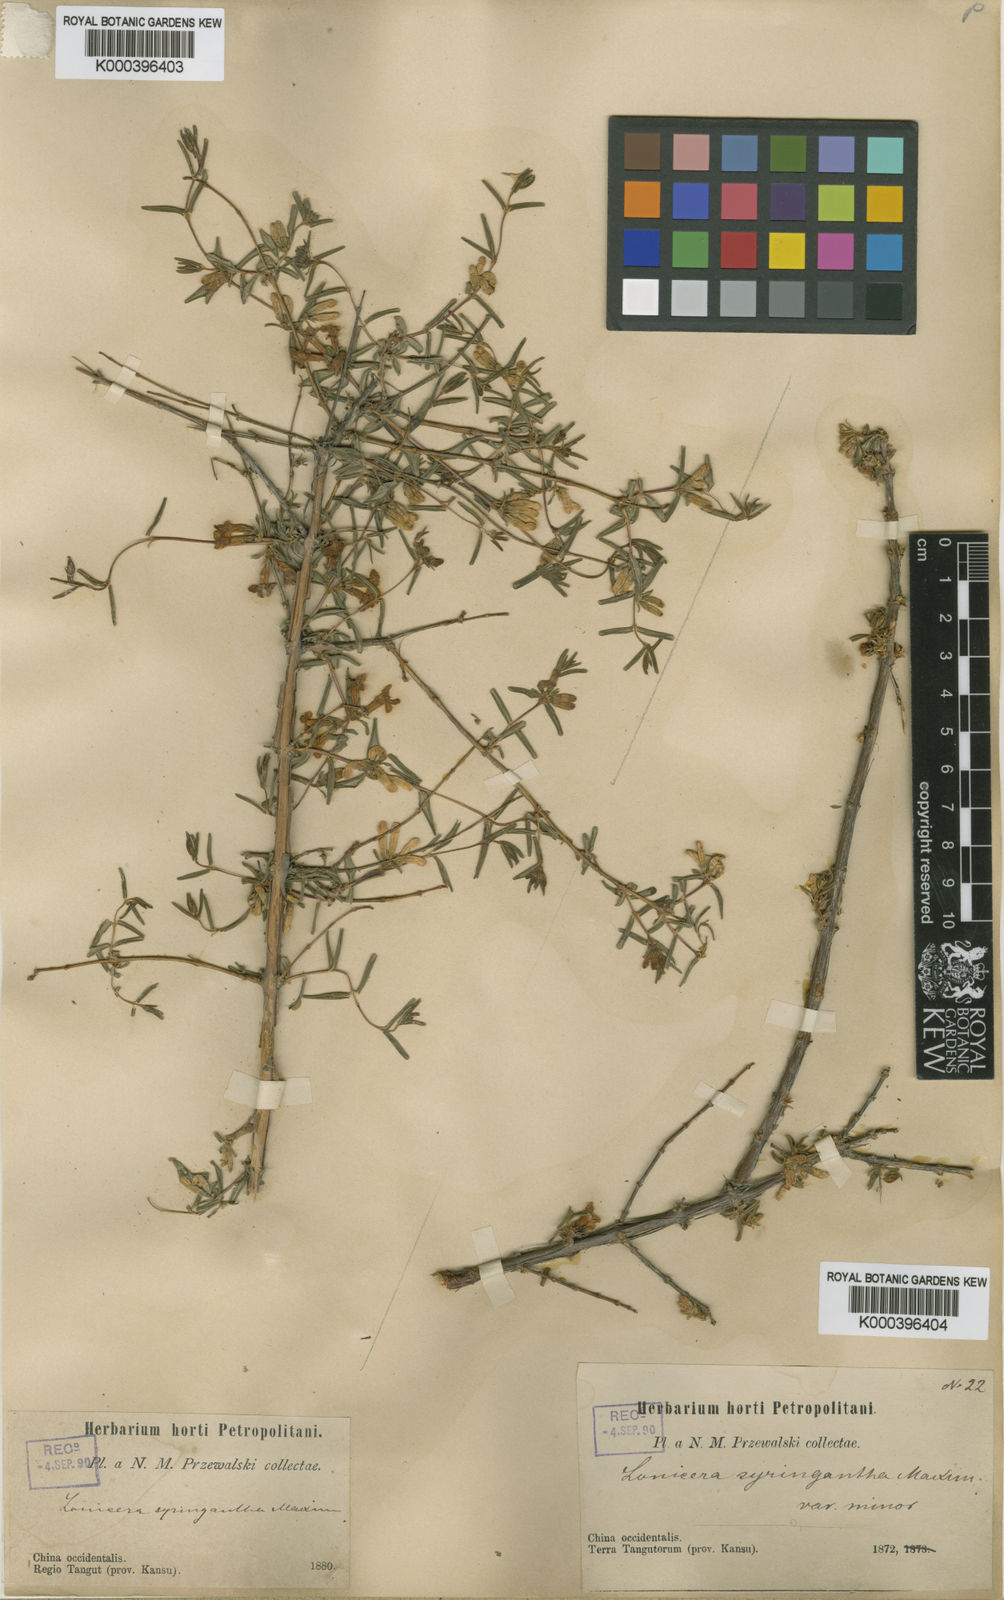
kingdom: Plantae
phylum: Tracheophyta
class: Magnoliopsida
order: Dipsacales
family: Caprifoliaceae
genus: Lonicera
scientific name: Lonicera rupicola
